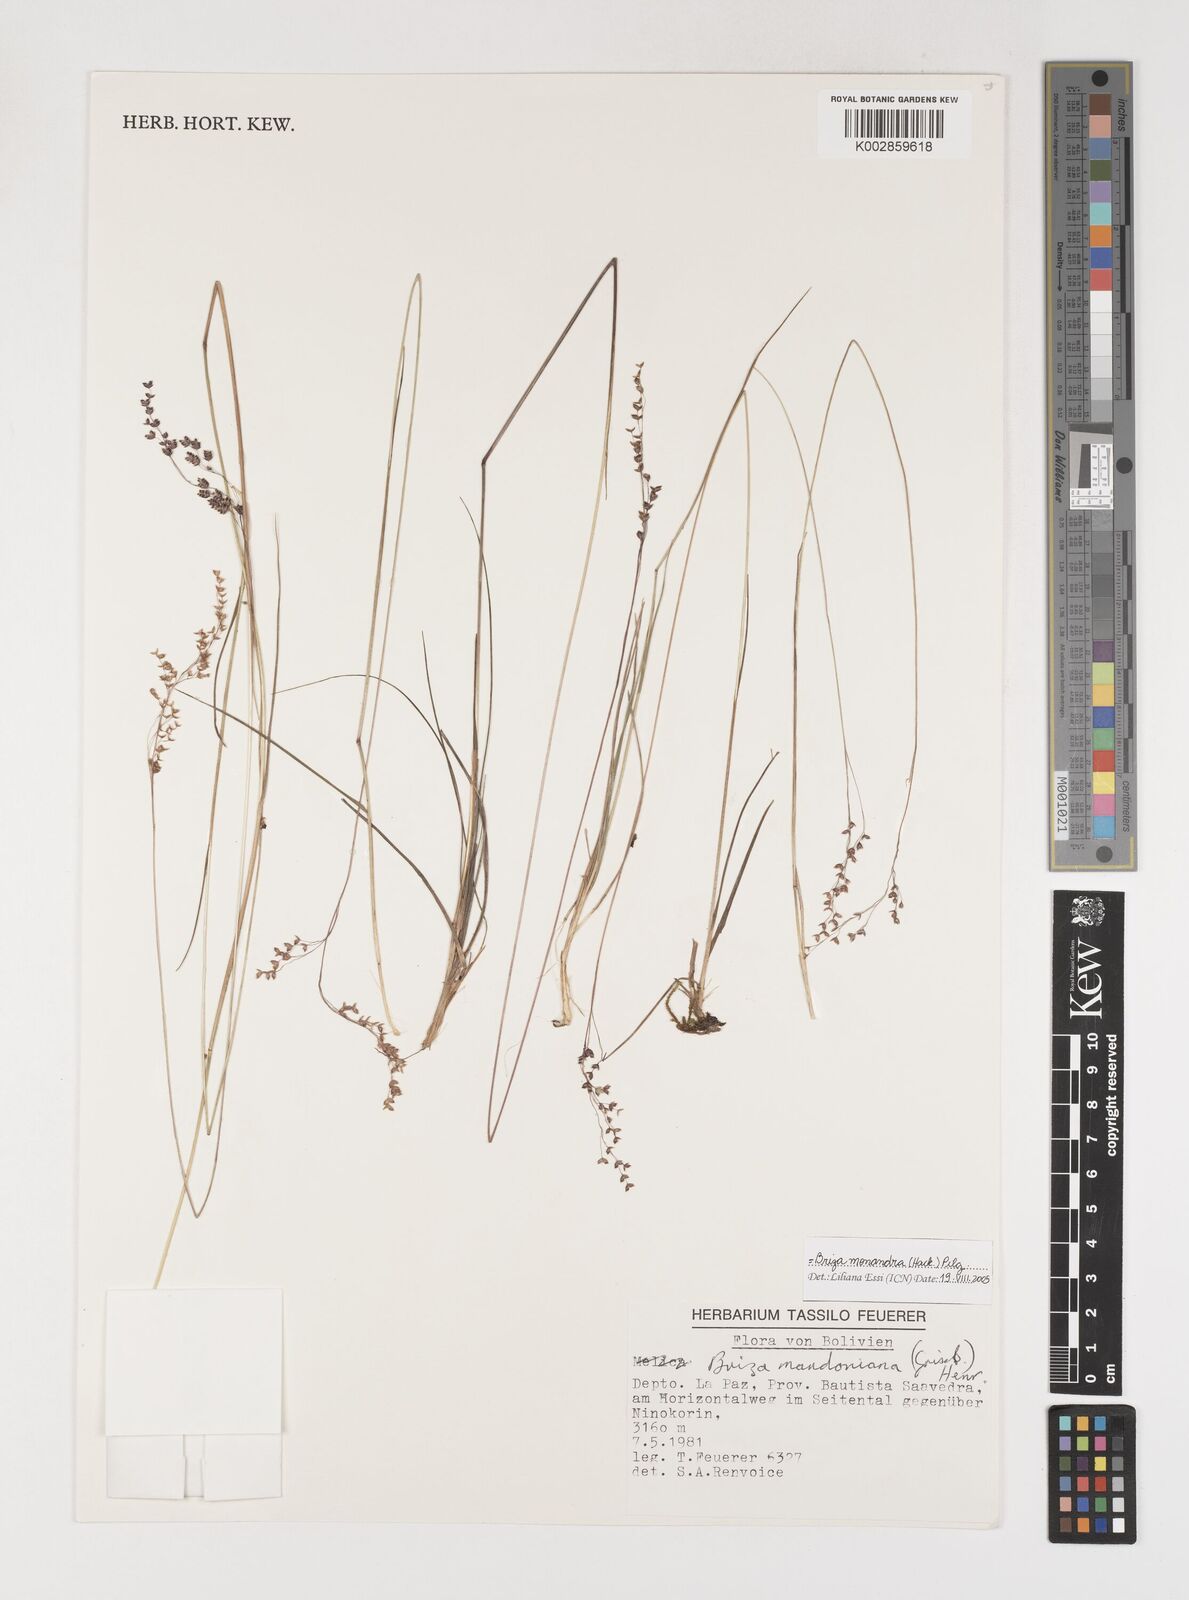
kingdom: Plantae
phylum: Tracheophyta
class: Liliopsida
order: Poales
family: Poaceae
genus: Poidium
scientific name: Poidium monandrum
